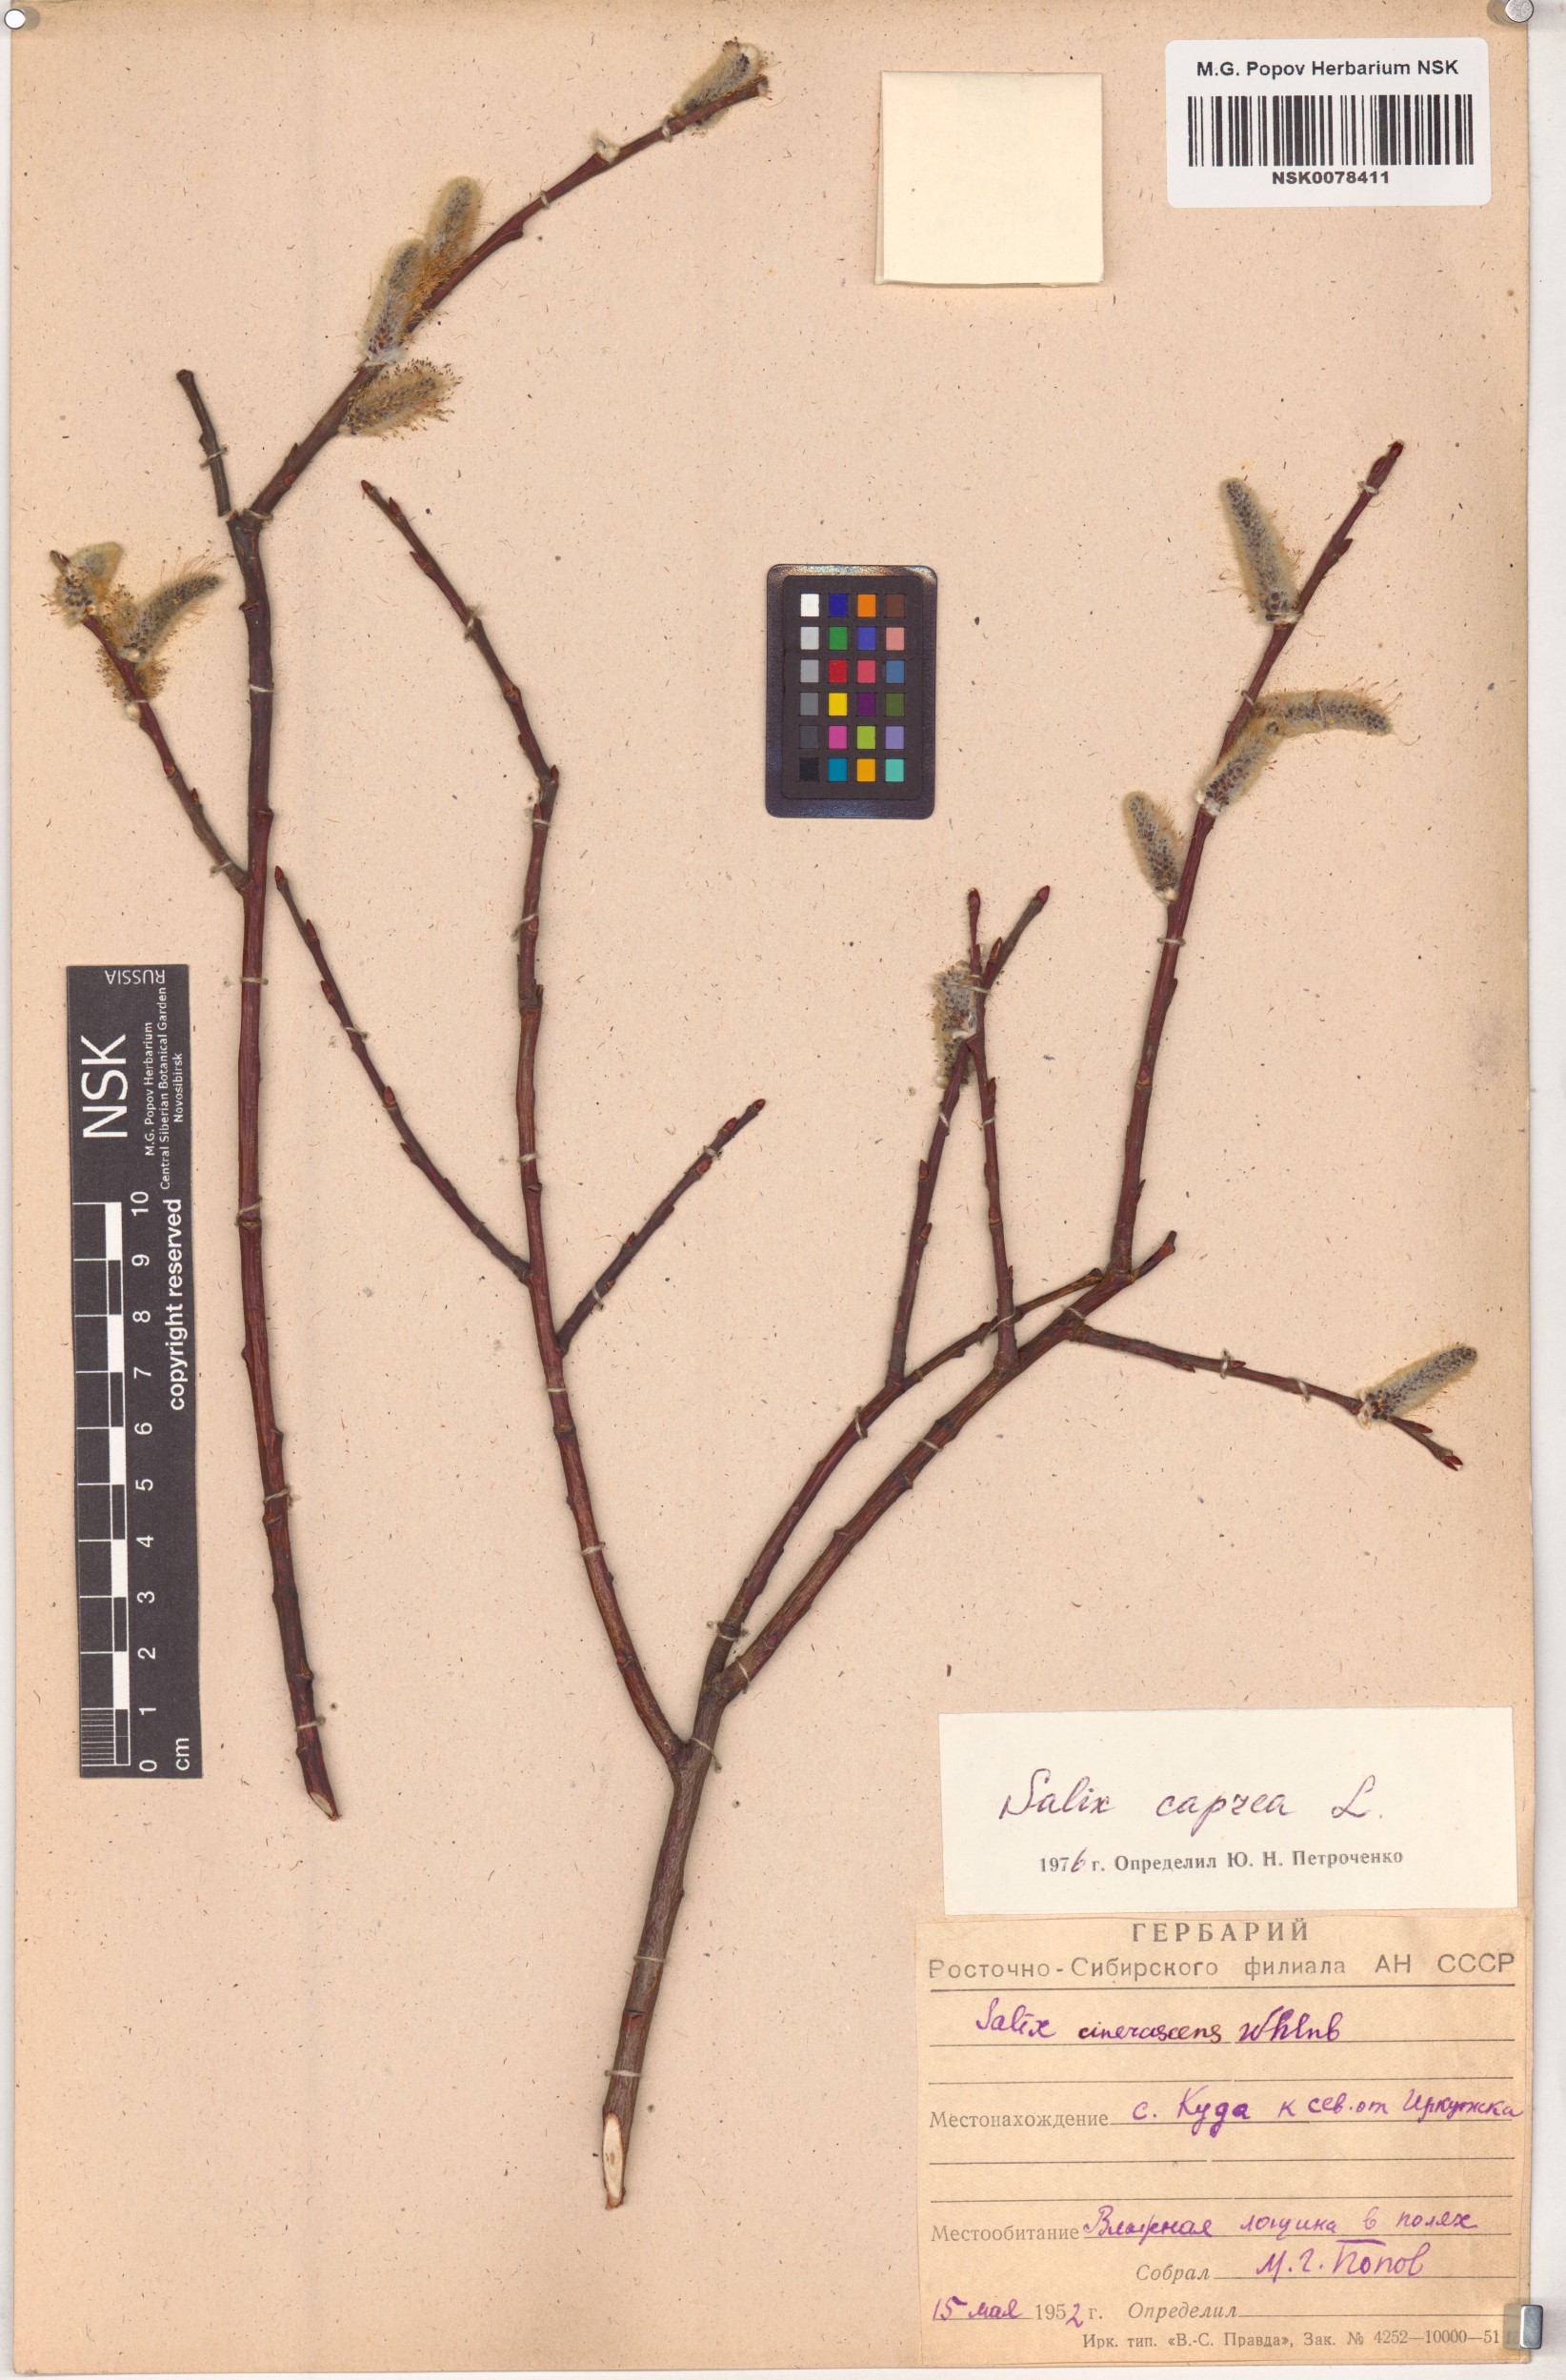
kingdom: Plantae
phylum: Tracheophyta
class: Magnoliopsida
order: Malpighiales
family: Salicaceae
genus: Salix
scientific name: Salix caprea
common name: Goat willow
